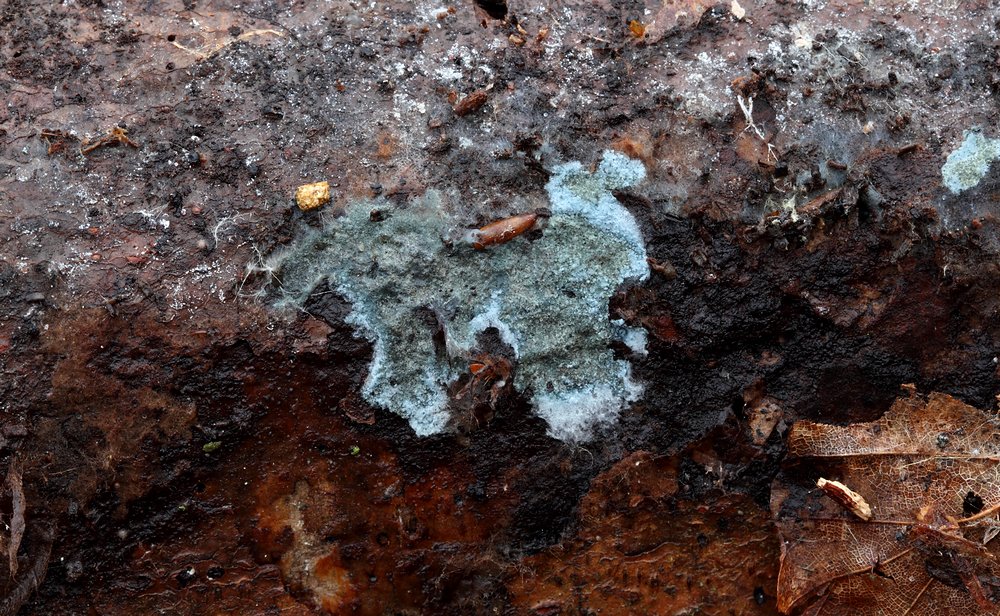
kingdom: Fungi
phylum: Basidiomycota
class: Agaricomycetes
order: Atheliales
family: Atheliaceae
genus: Byssocorticium
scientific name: Byssocorticium atrovirens
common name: blå førnehinde
